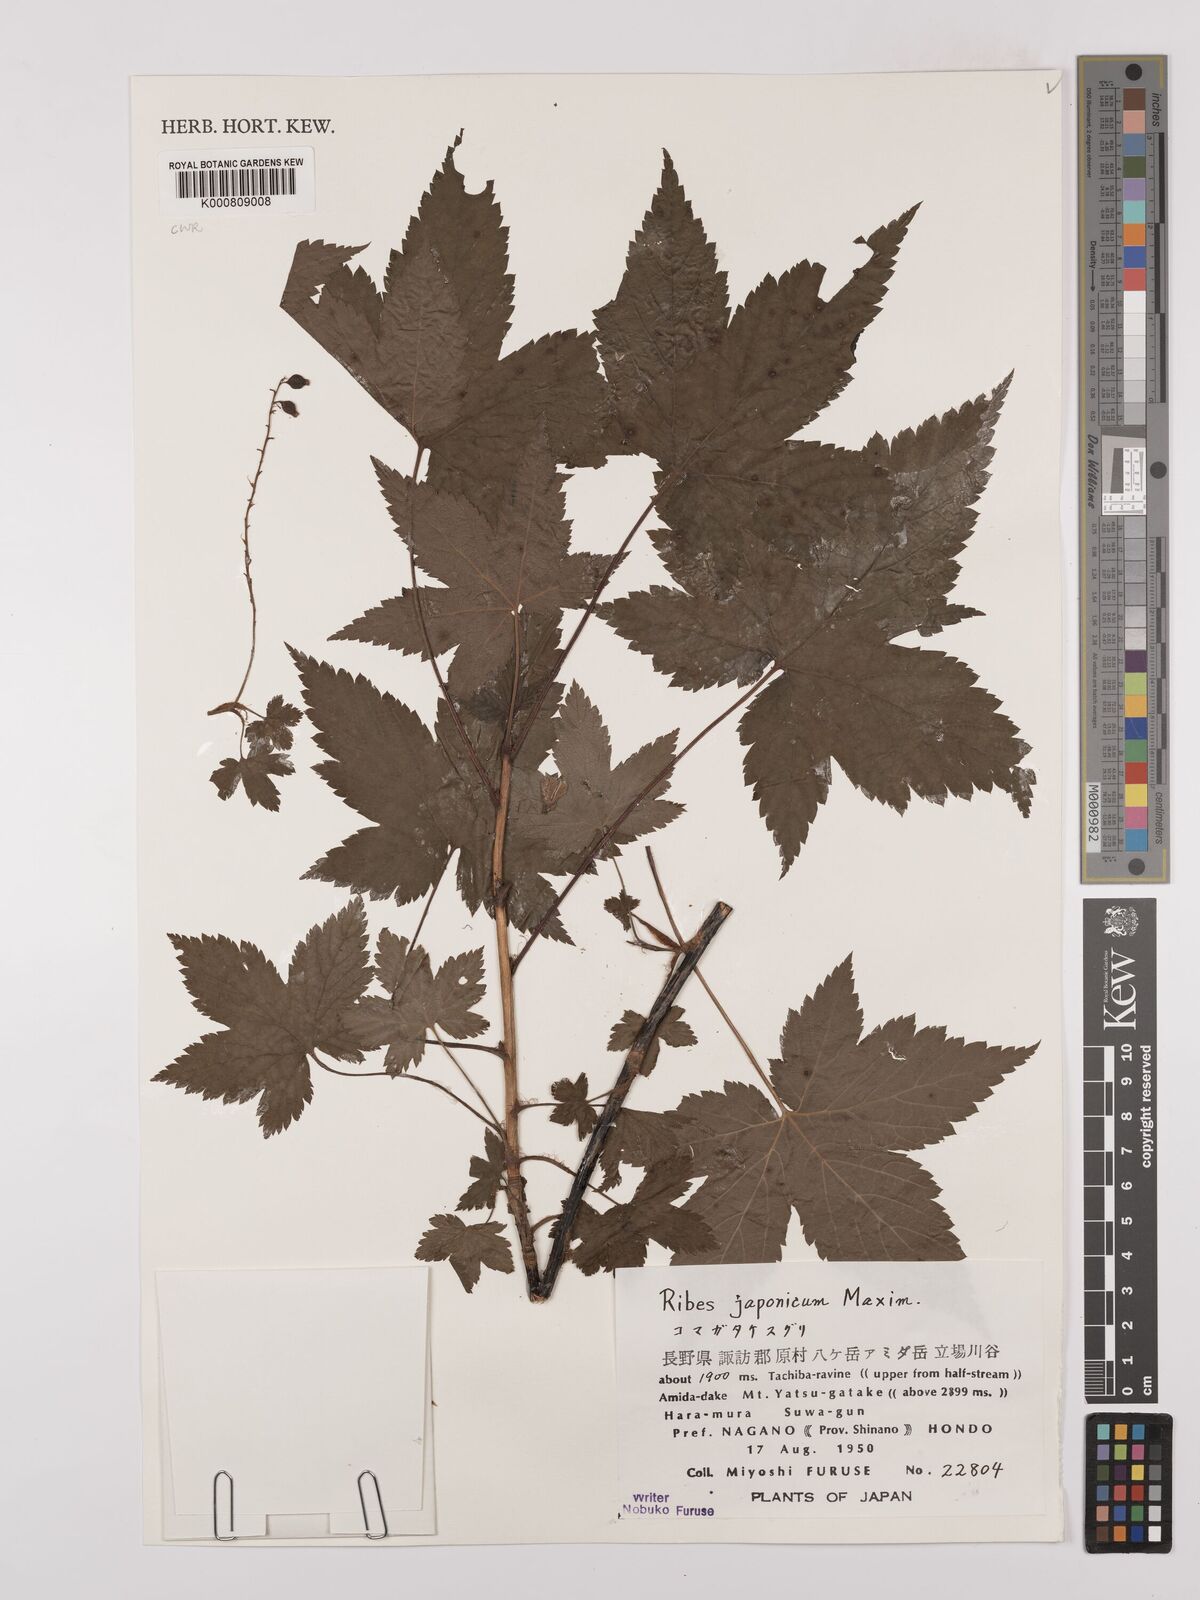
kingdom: Plantae
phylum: Tracheophyta
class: Magnoliopsida
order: Saxifragales
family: Grossulariaceae
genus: Ribes
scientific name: Ribes japonicum
